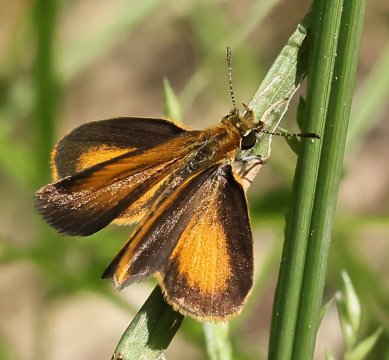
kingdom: Animalia
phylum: Arthropoda
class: Insecta
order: Lepidoptera
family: Hesperiidae
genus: Ancyloxypha
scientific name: Ancyloxypha numitor
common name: Least Skipper
